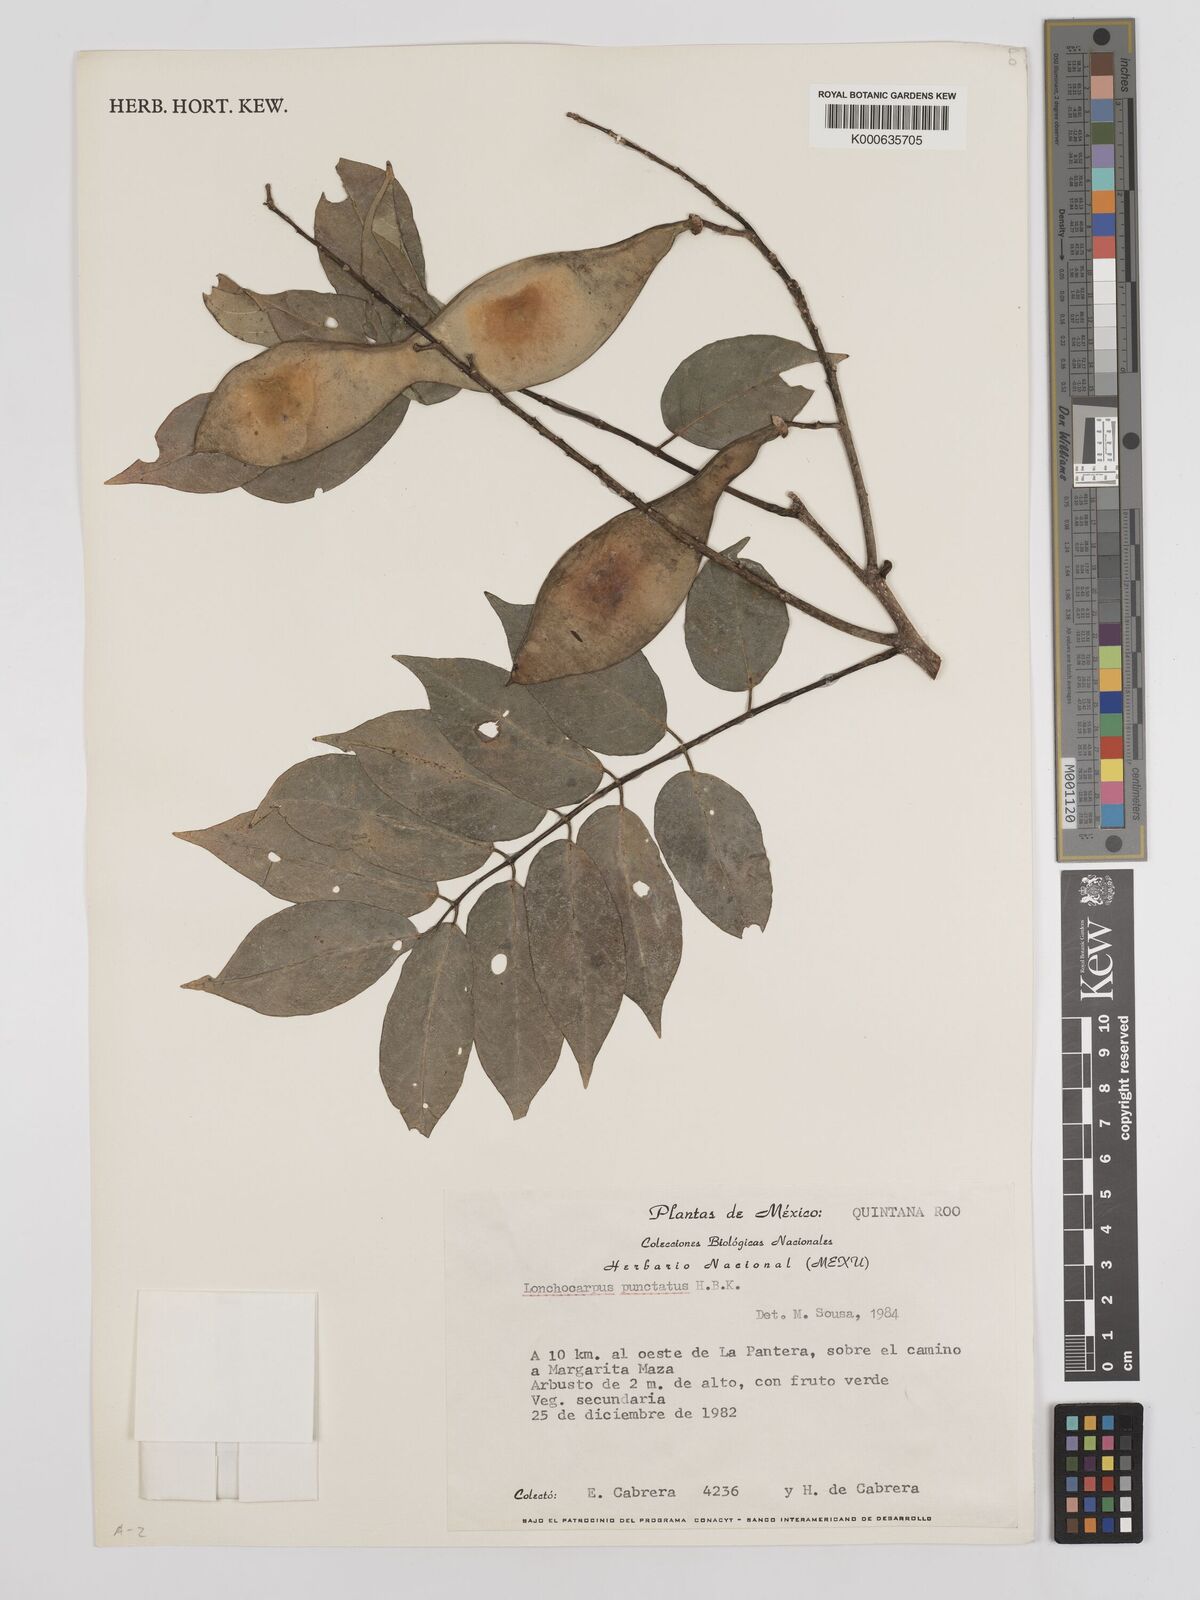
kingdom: Plantae
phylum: Tracheophyta
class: Magnoliopsida
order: Fabales
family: Fabaceae
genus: Lonchocarpus
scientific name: Lonchocarpus punctatus
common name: Dotted lancepod
